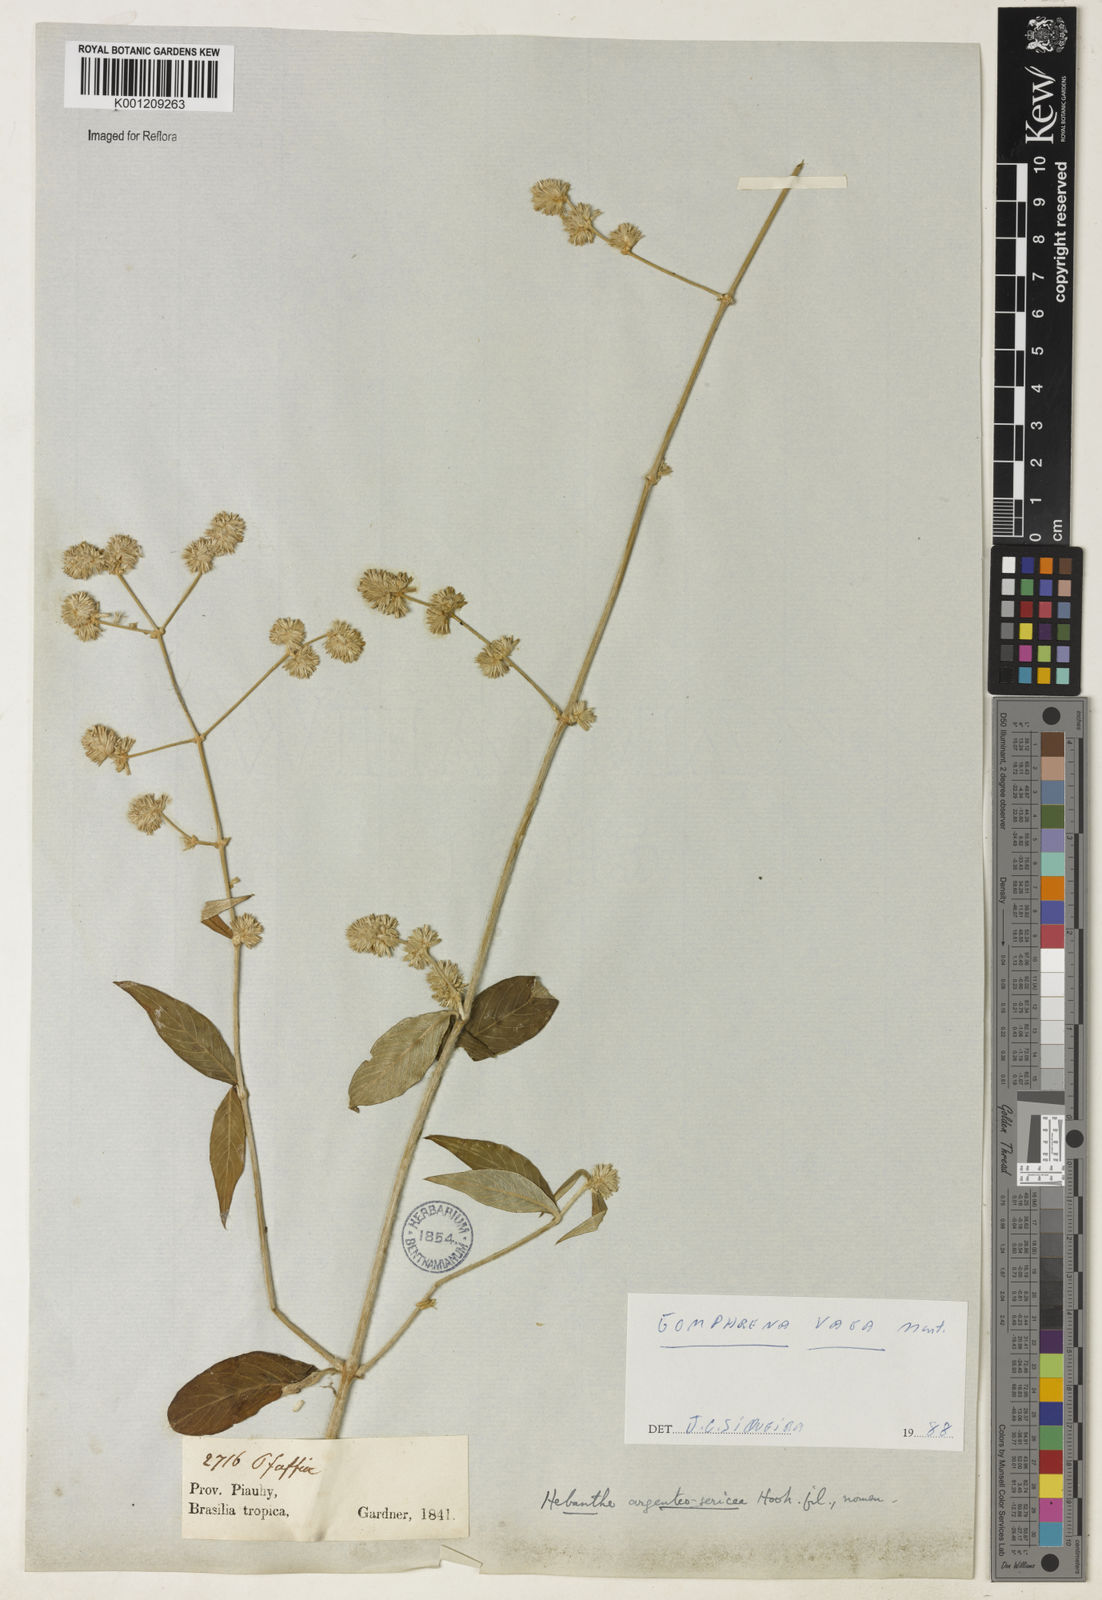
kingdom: Plantae
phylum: Tracheophyta
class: Magnoliopsida
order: Caryophyllales
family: Amaranthaceae
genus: Gomphrena
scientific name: Gomphrena vaga
